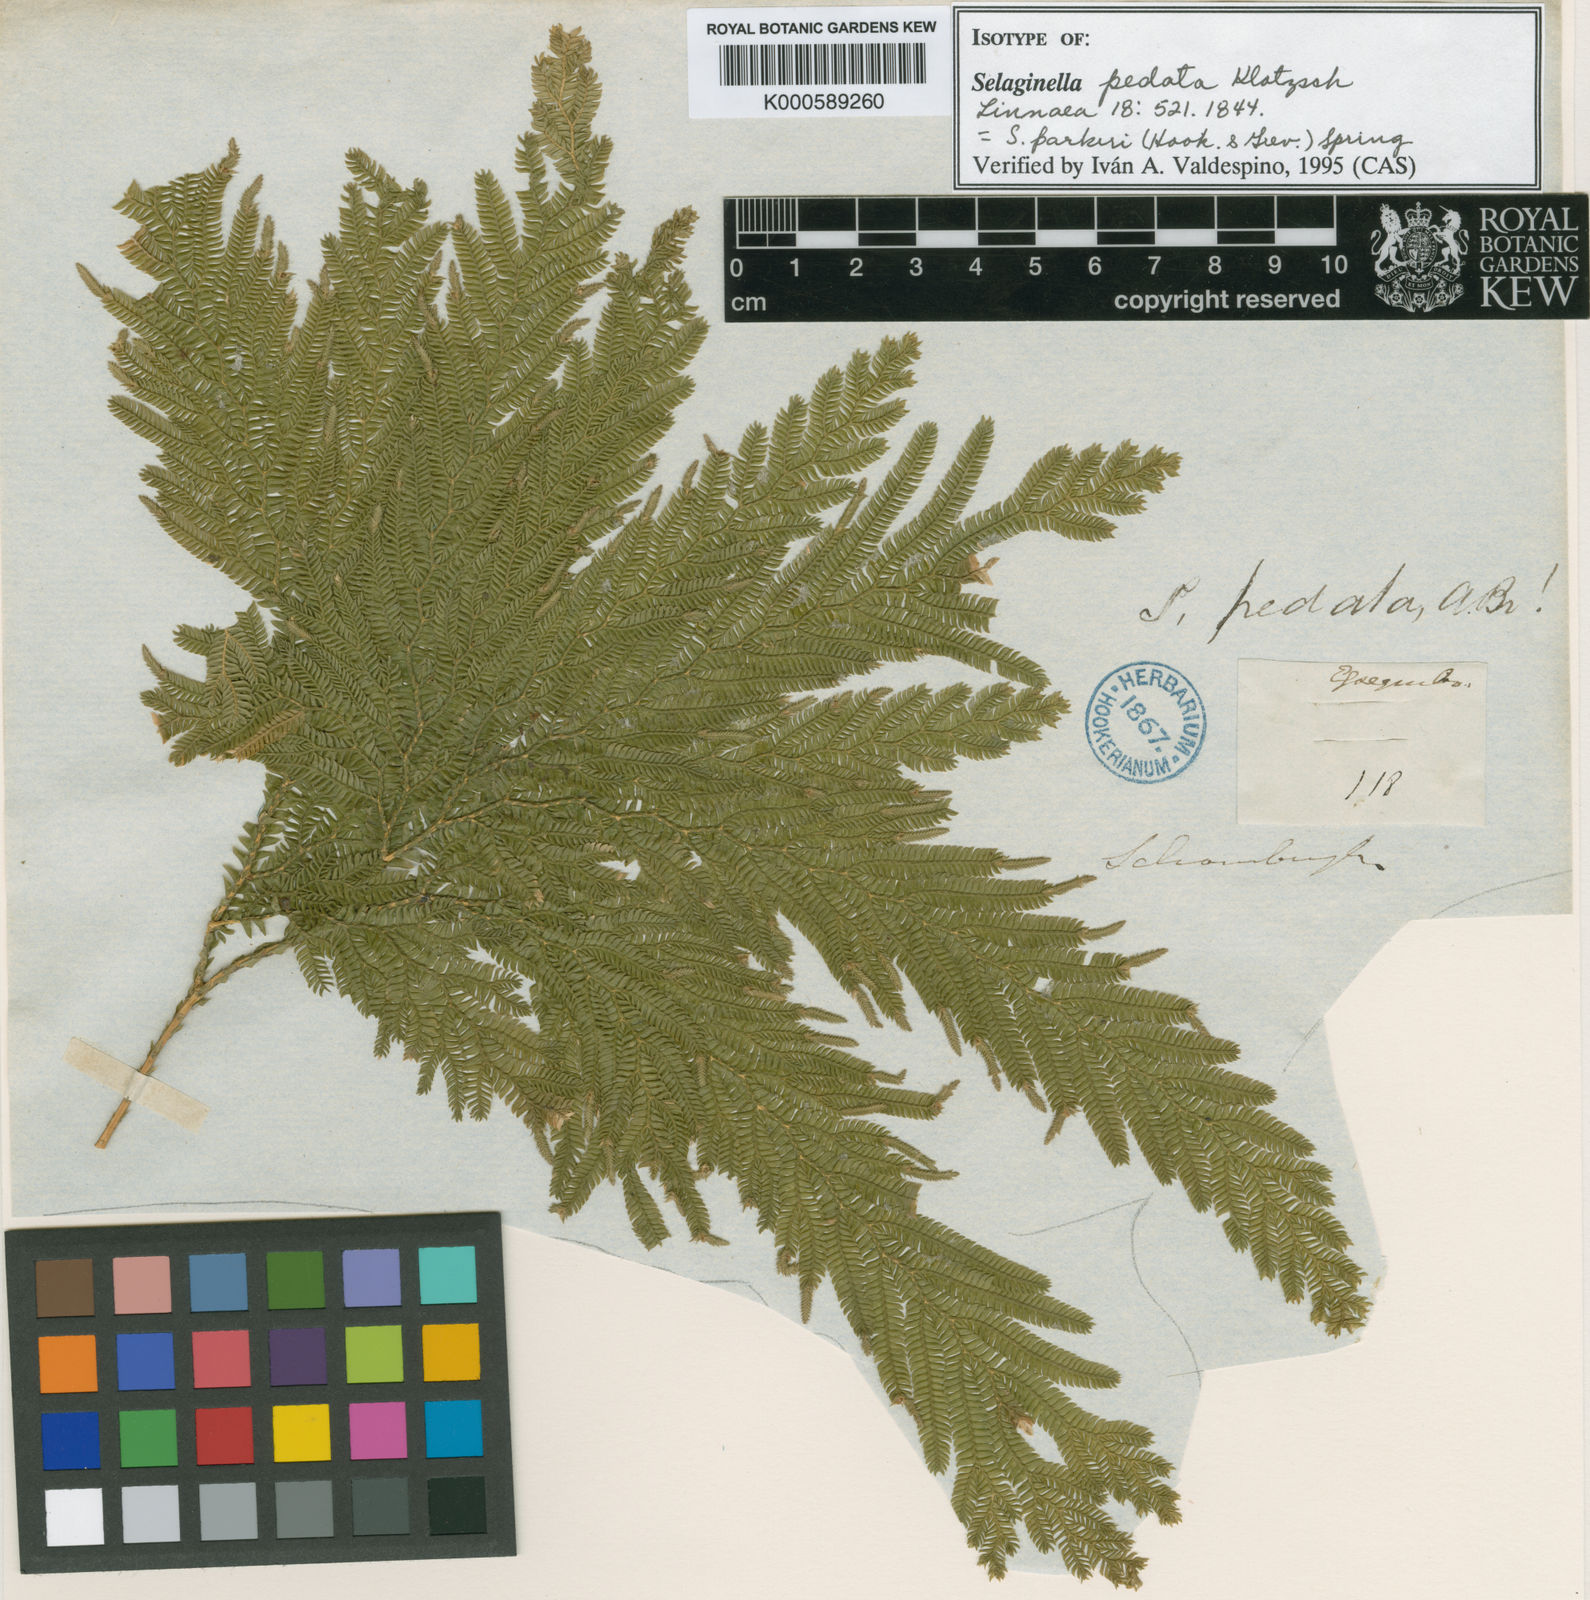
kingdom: Plantae
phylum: Tracheophyta
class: Lycopodiopsida
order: Selaginellales
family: Selaginellaceae
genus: Selaginella
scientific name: Selaginella parkeri
